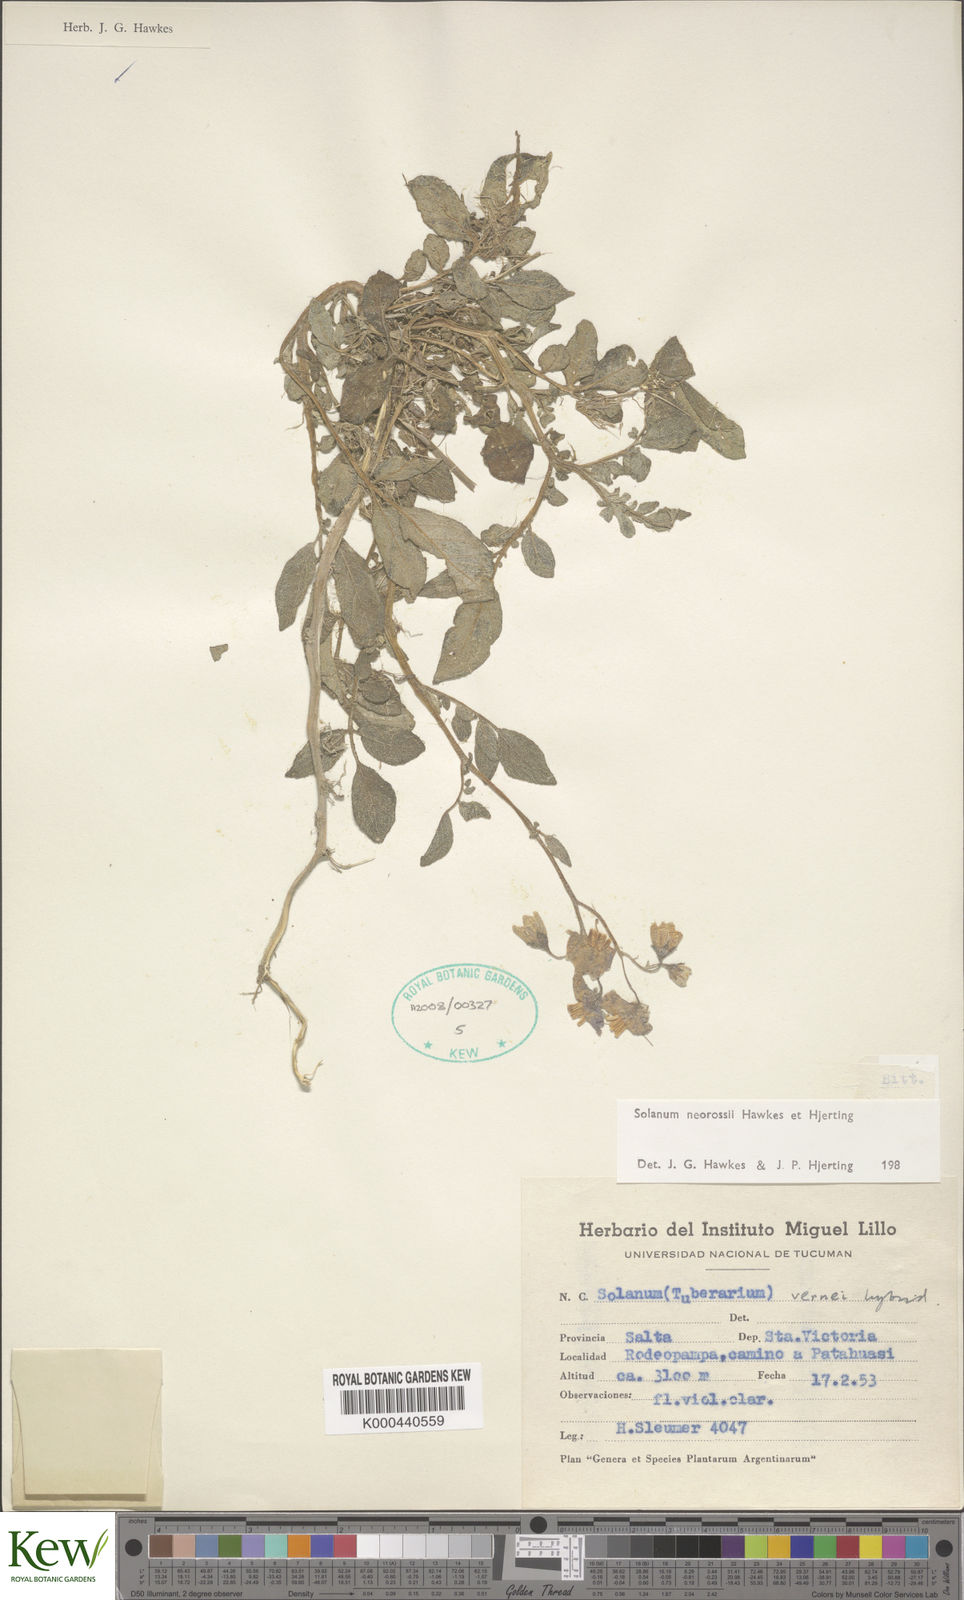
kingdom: Plantae
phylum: Tracheophyta
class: Magnoliopsida
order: Solanales
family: Solanaceae
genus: Solanum
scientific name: Solanum neorossii
